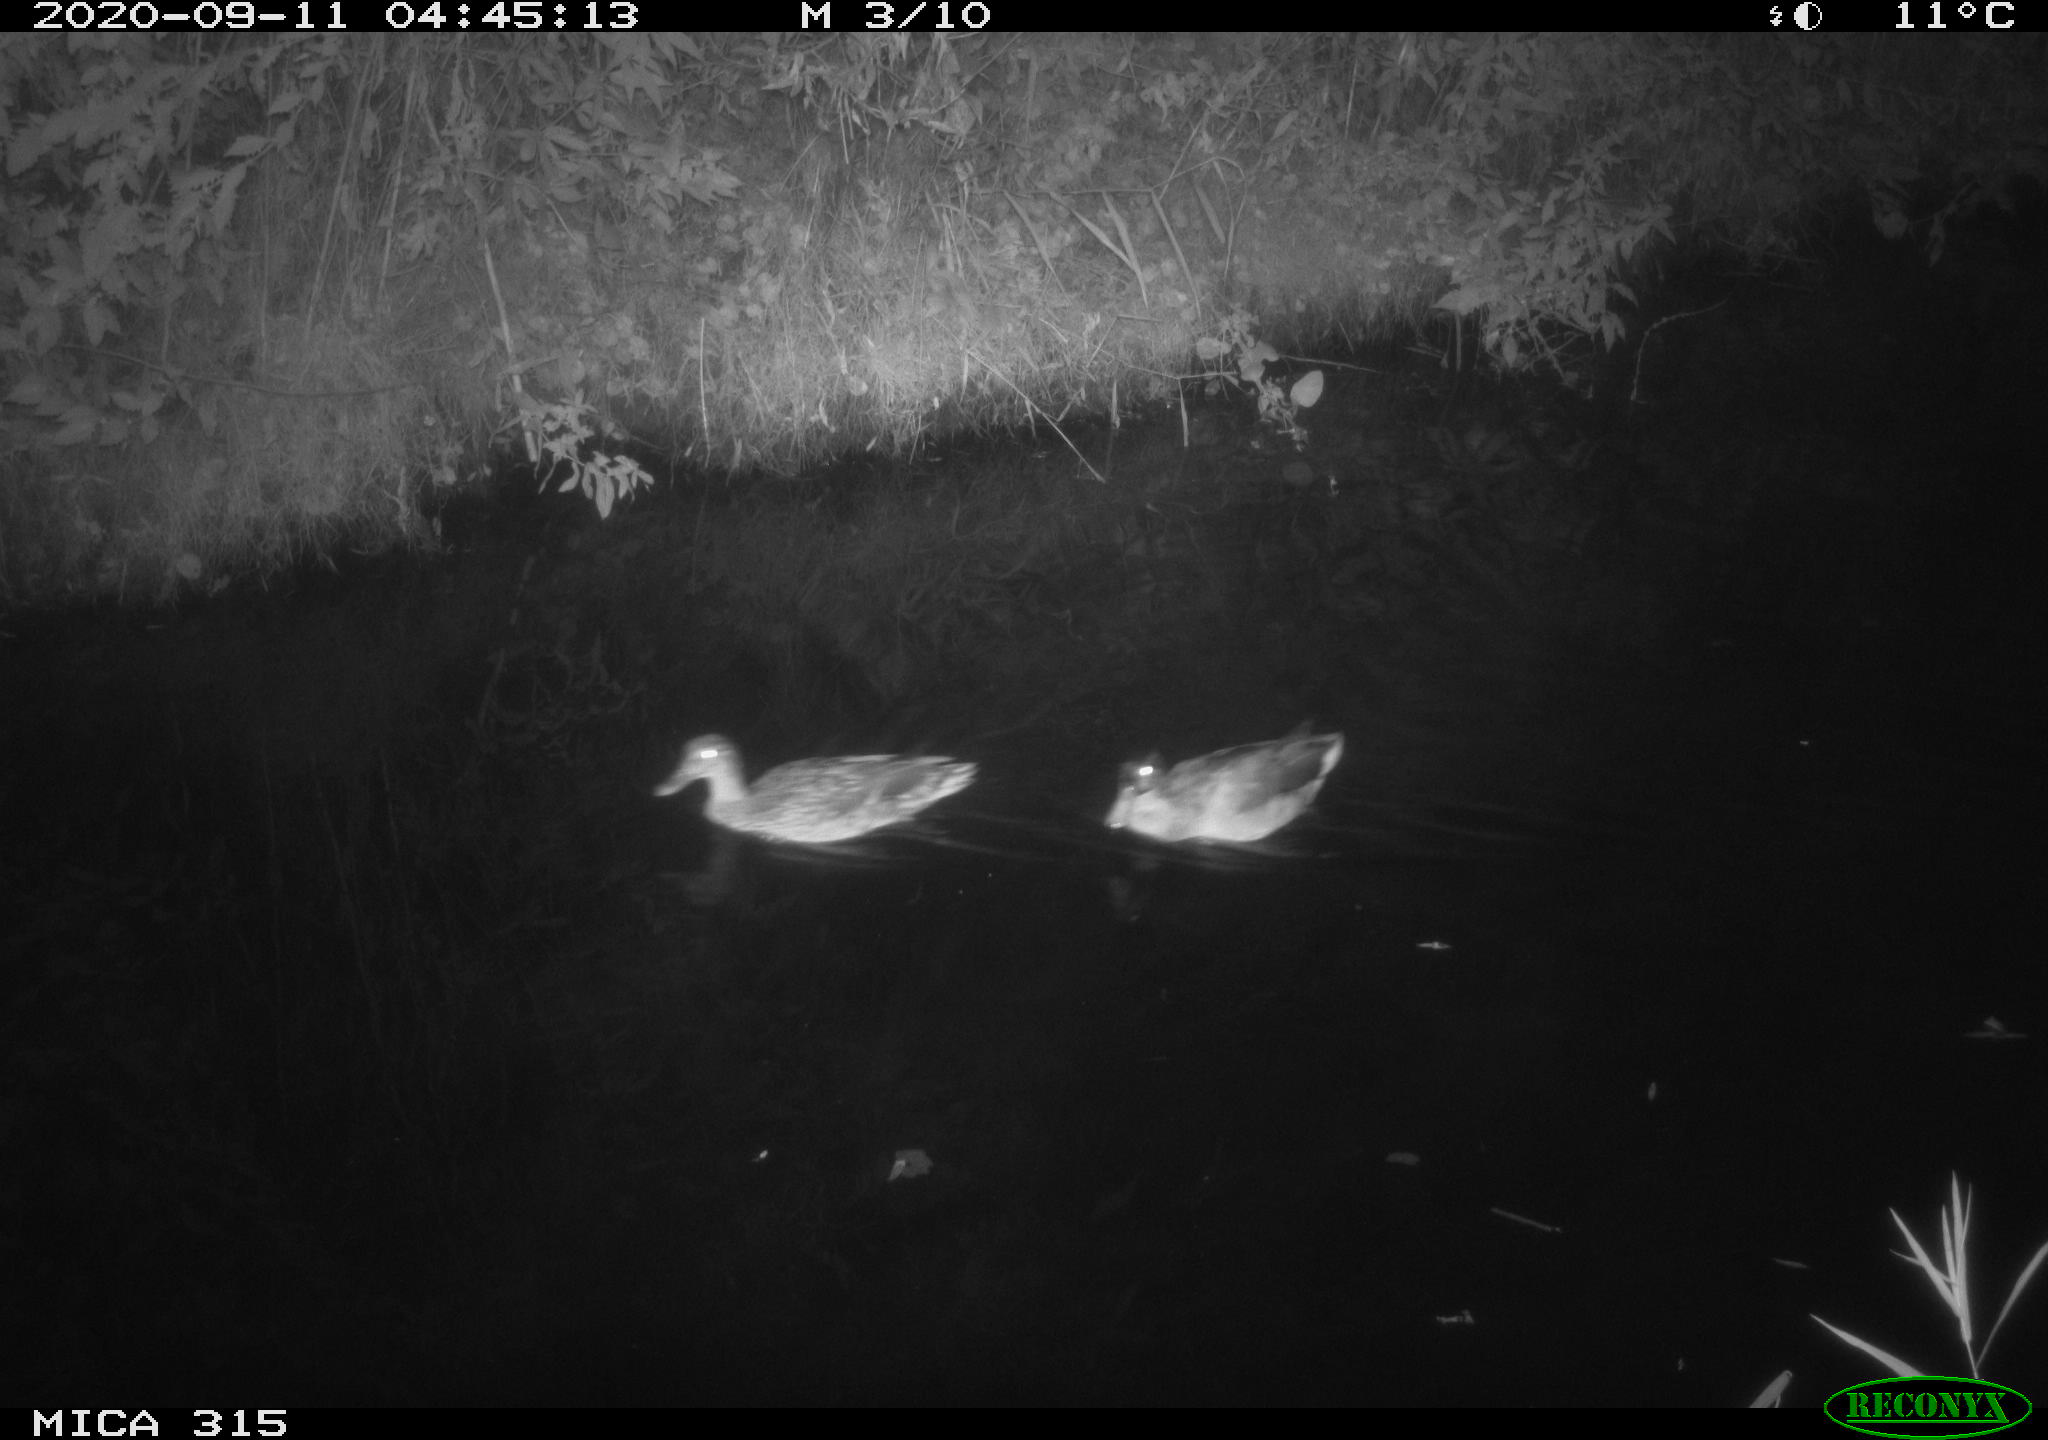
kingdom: Animalia
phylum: Chordata
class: Aves
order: Anseriformes
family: Anatidae
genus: Anas
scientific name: Anas platyrhynchos
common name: Mallard
